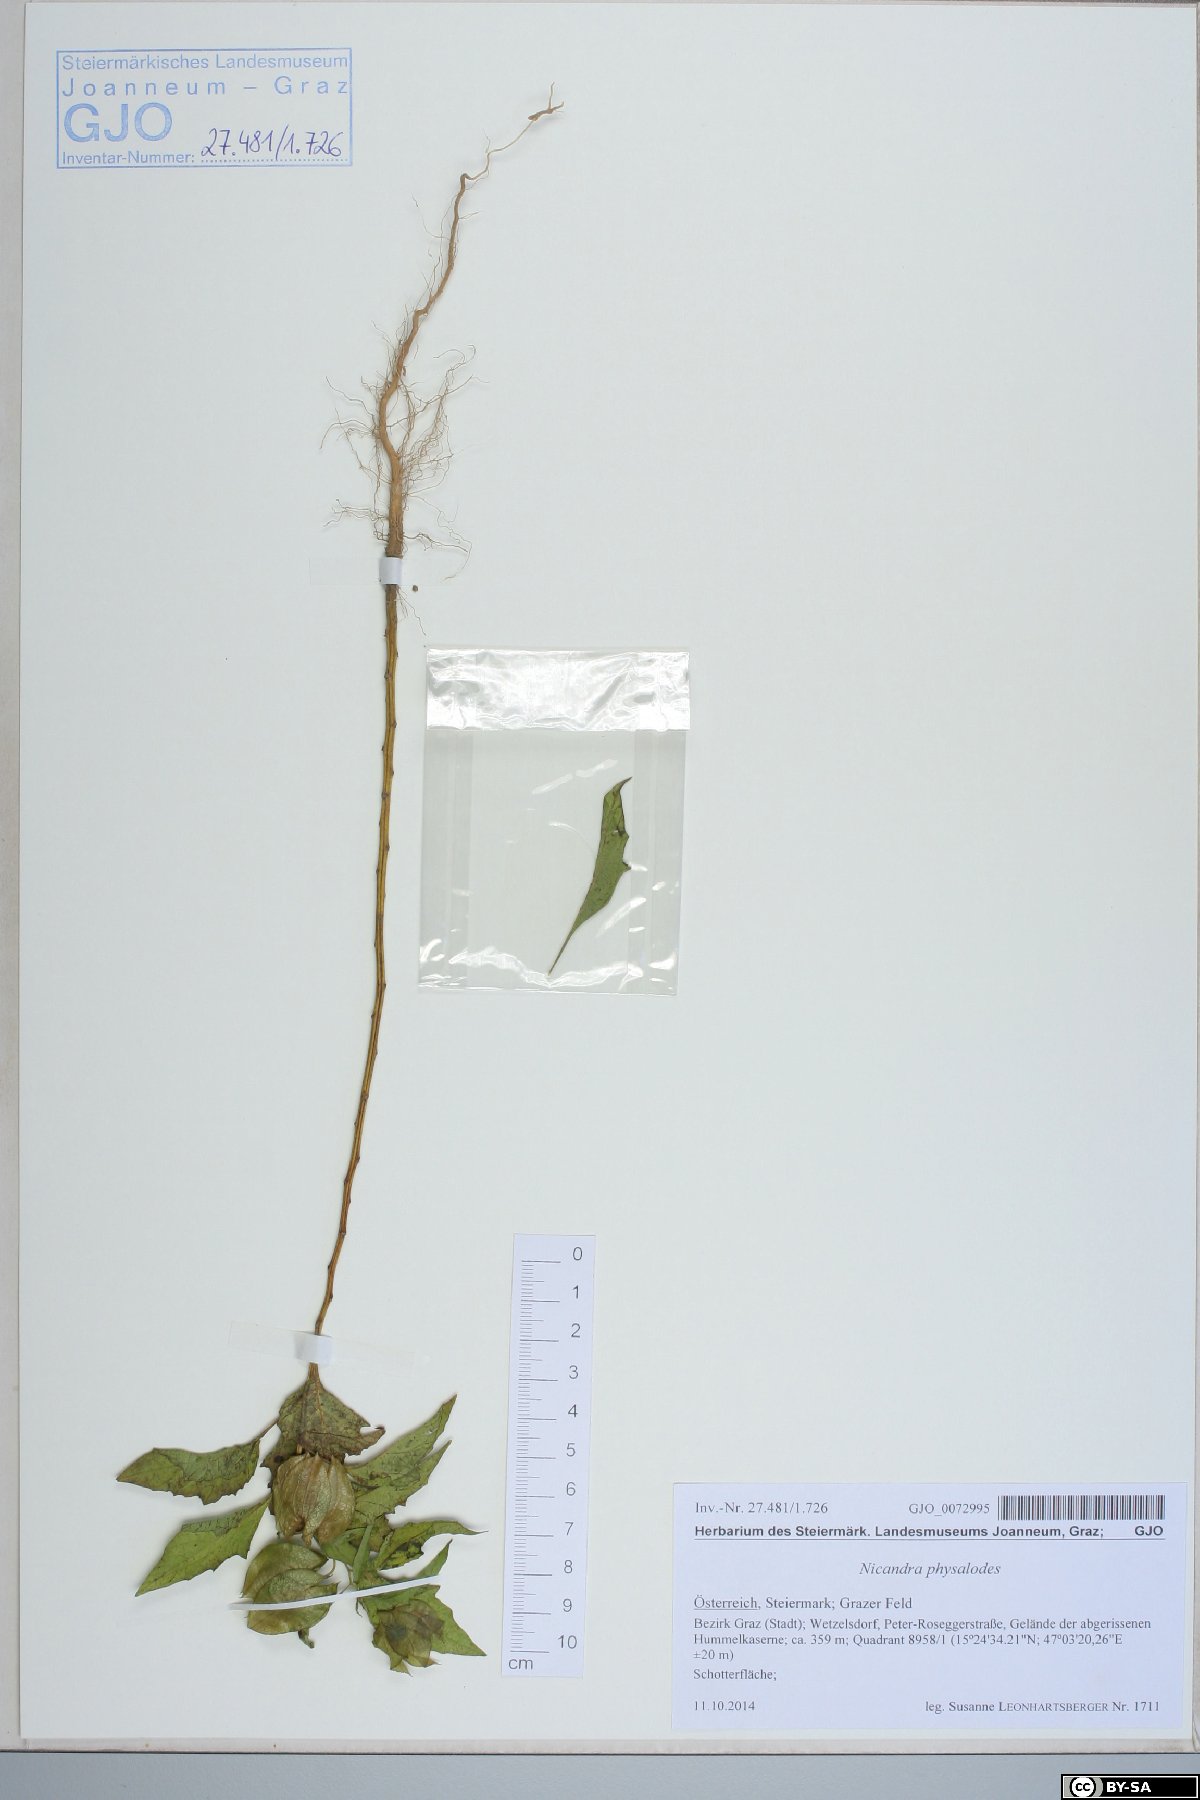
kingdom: Plantae
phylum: Tracheophyta
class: Magnoliopsida
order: Solanales
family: Solanaceae
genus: Nicandra
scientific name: Nicandra physalodes
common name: Apple-of-peru
